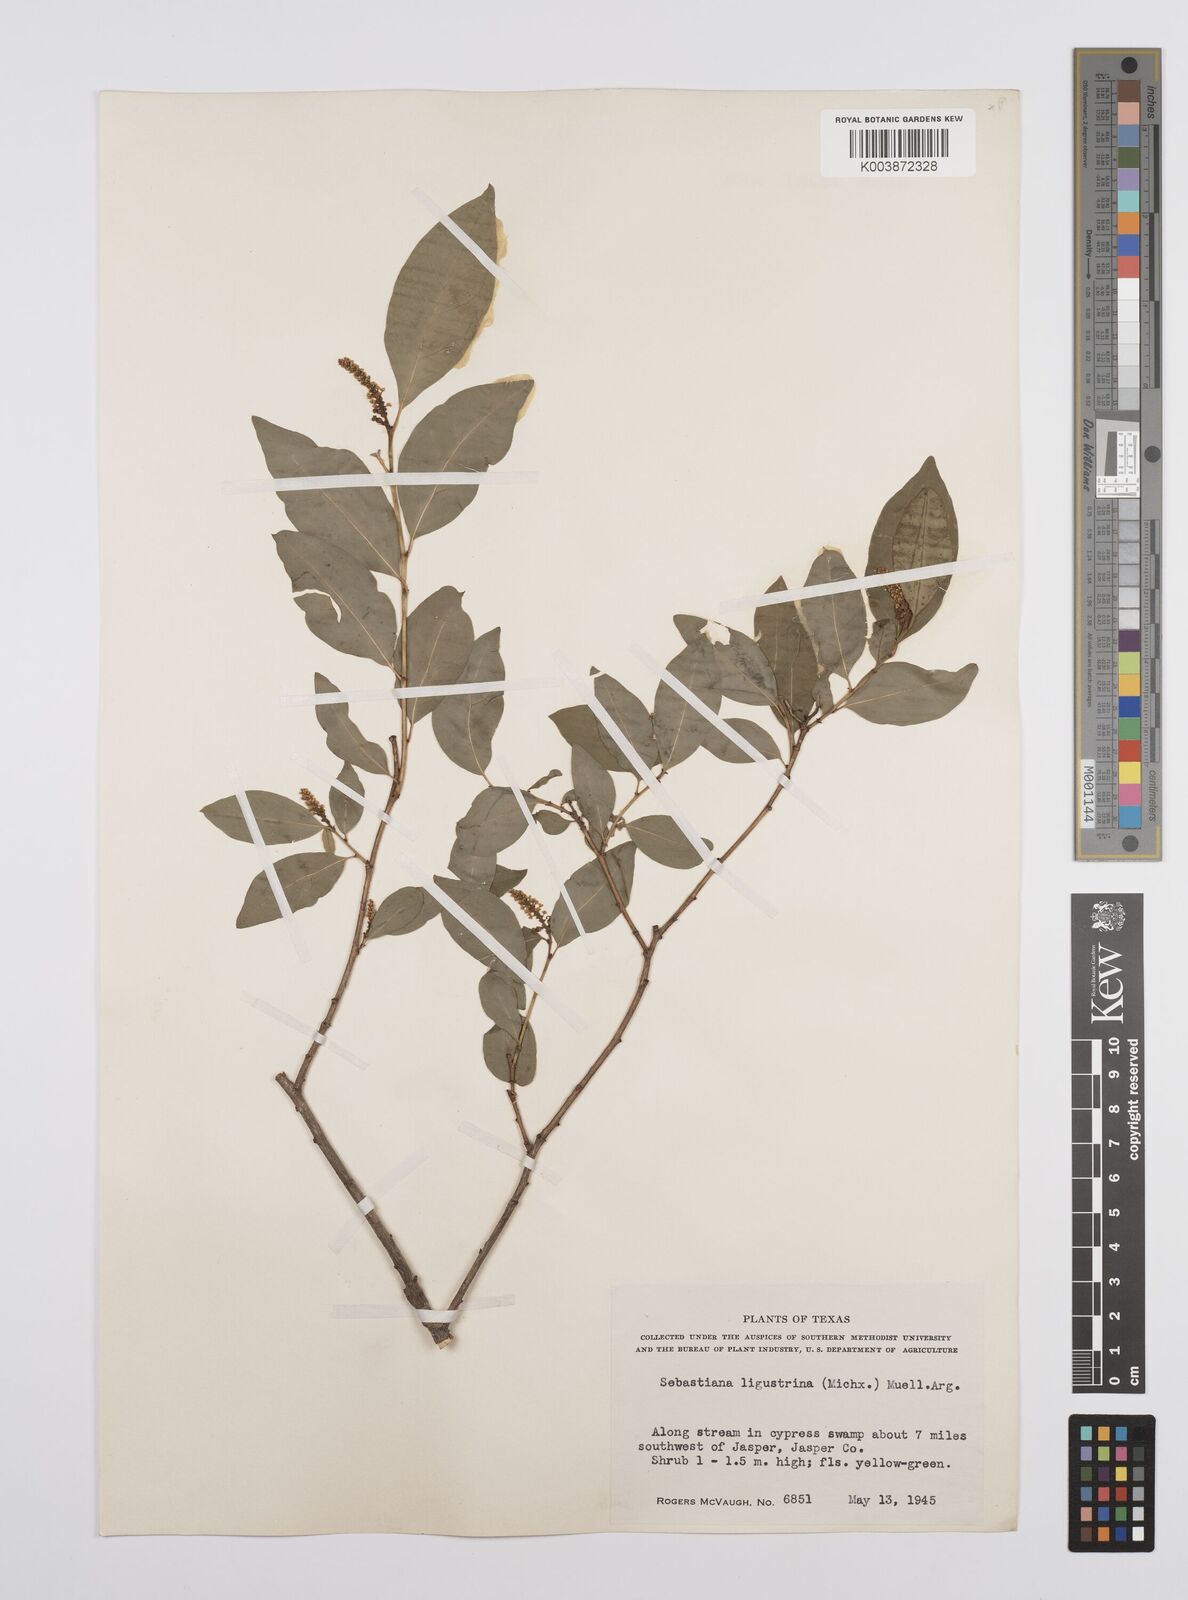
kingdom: Plantae
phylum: Tracheophyta
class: Magnoliopsida
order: Malpighiales
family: Euphorbiaceae
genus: Ditrysinia
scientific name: Ditrysinia fruticosa
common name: Gulf sebastian-bush
